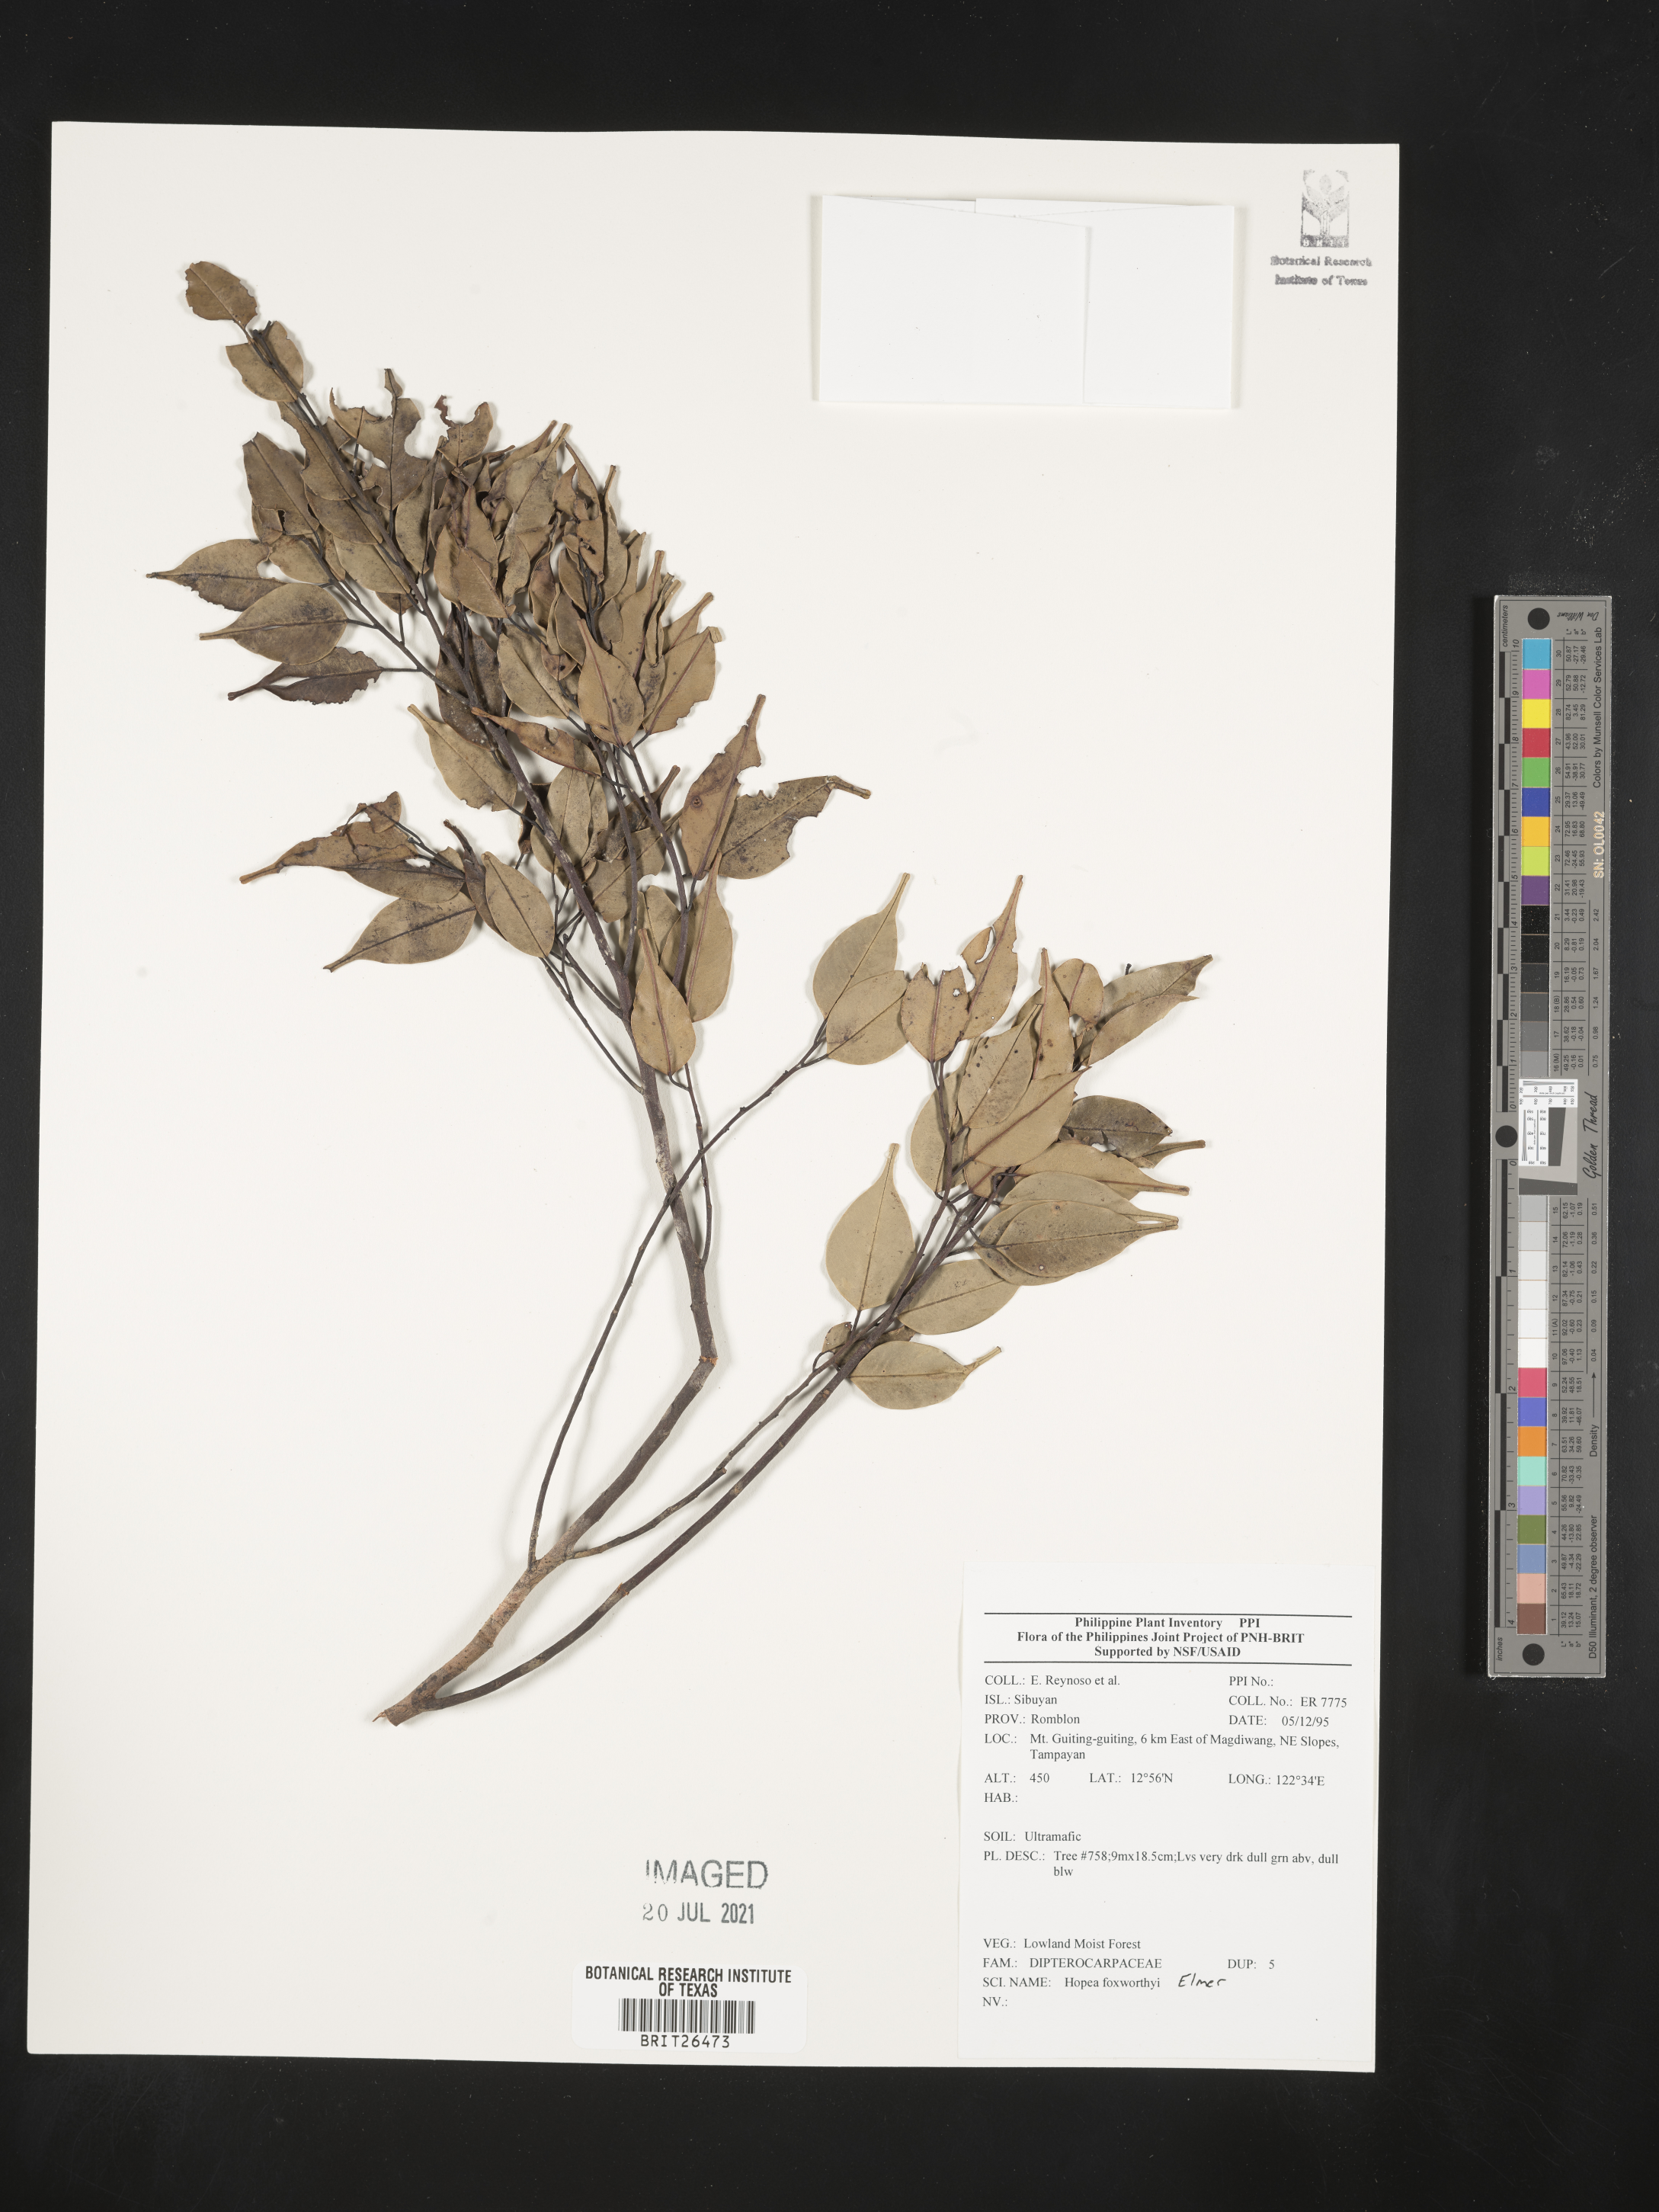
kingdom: Plantae
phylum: Tracheophyta
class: Magnoliopsida
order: Malvales
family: Dipterocarpaceae
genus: Hopea
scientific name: Hopea foxworthyi
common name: Dalingdingan
